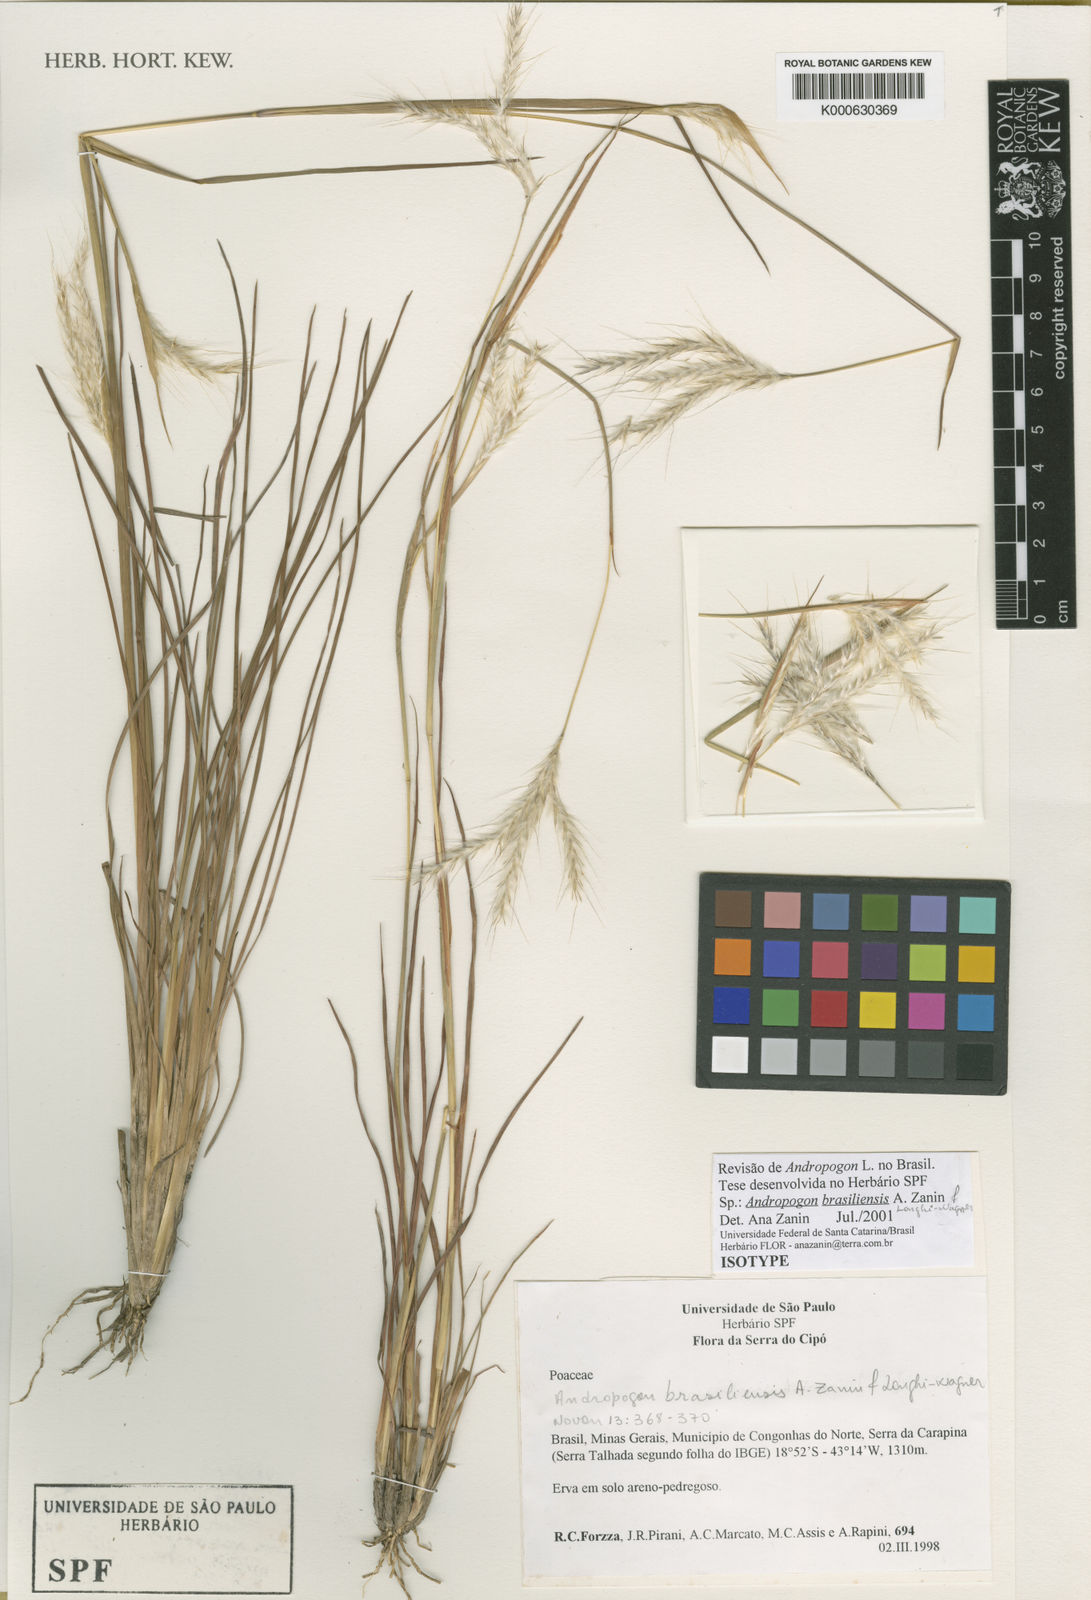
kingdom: Plantae
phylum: Tracheophyta
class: Liliopsida
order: Poales
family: Poaceae
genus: Andropogon
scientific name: Andropogon brasiliensis
